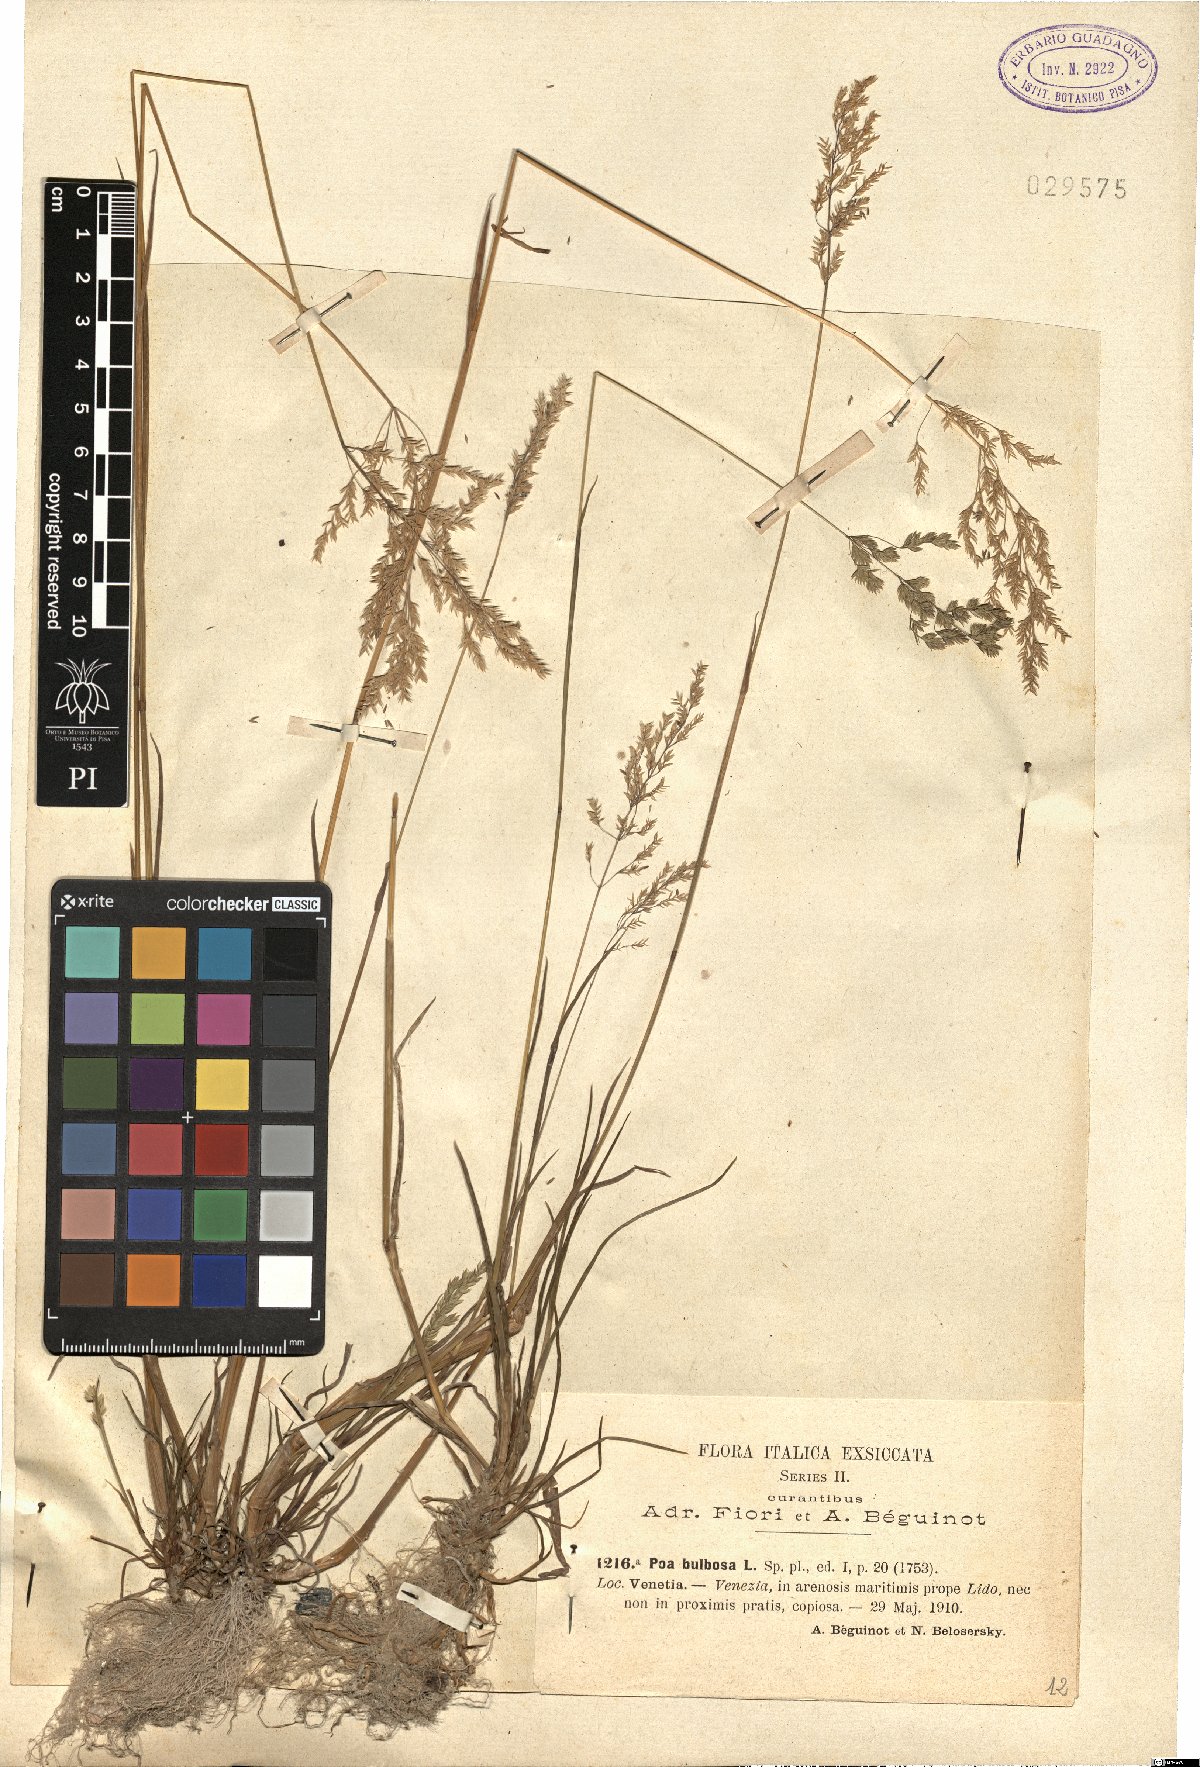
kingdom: Plantae
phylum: Tracheophyta
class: Liliopsida
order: Poales
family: Poaceae
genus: Poa
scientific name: Poa bulbosa
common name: Bulbous bluegrass
